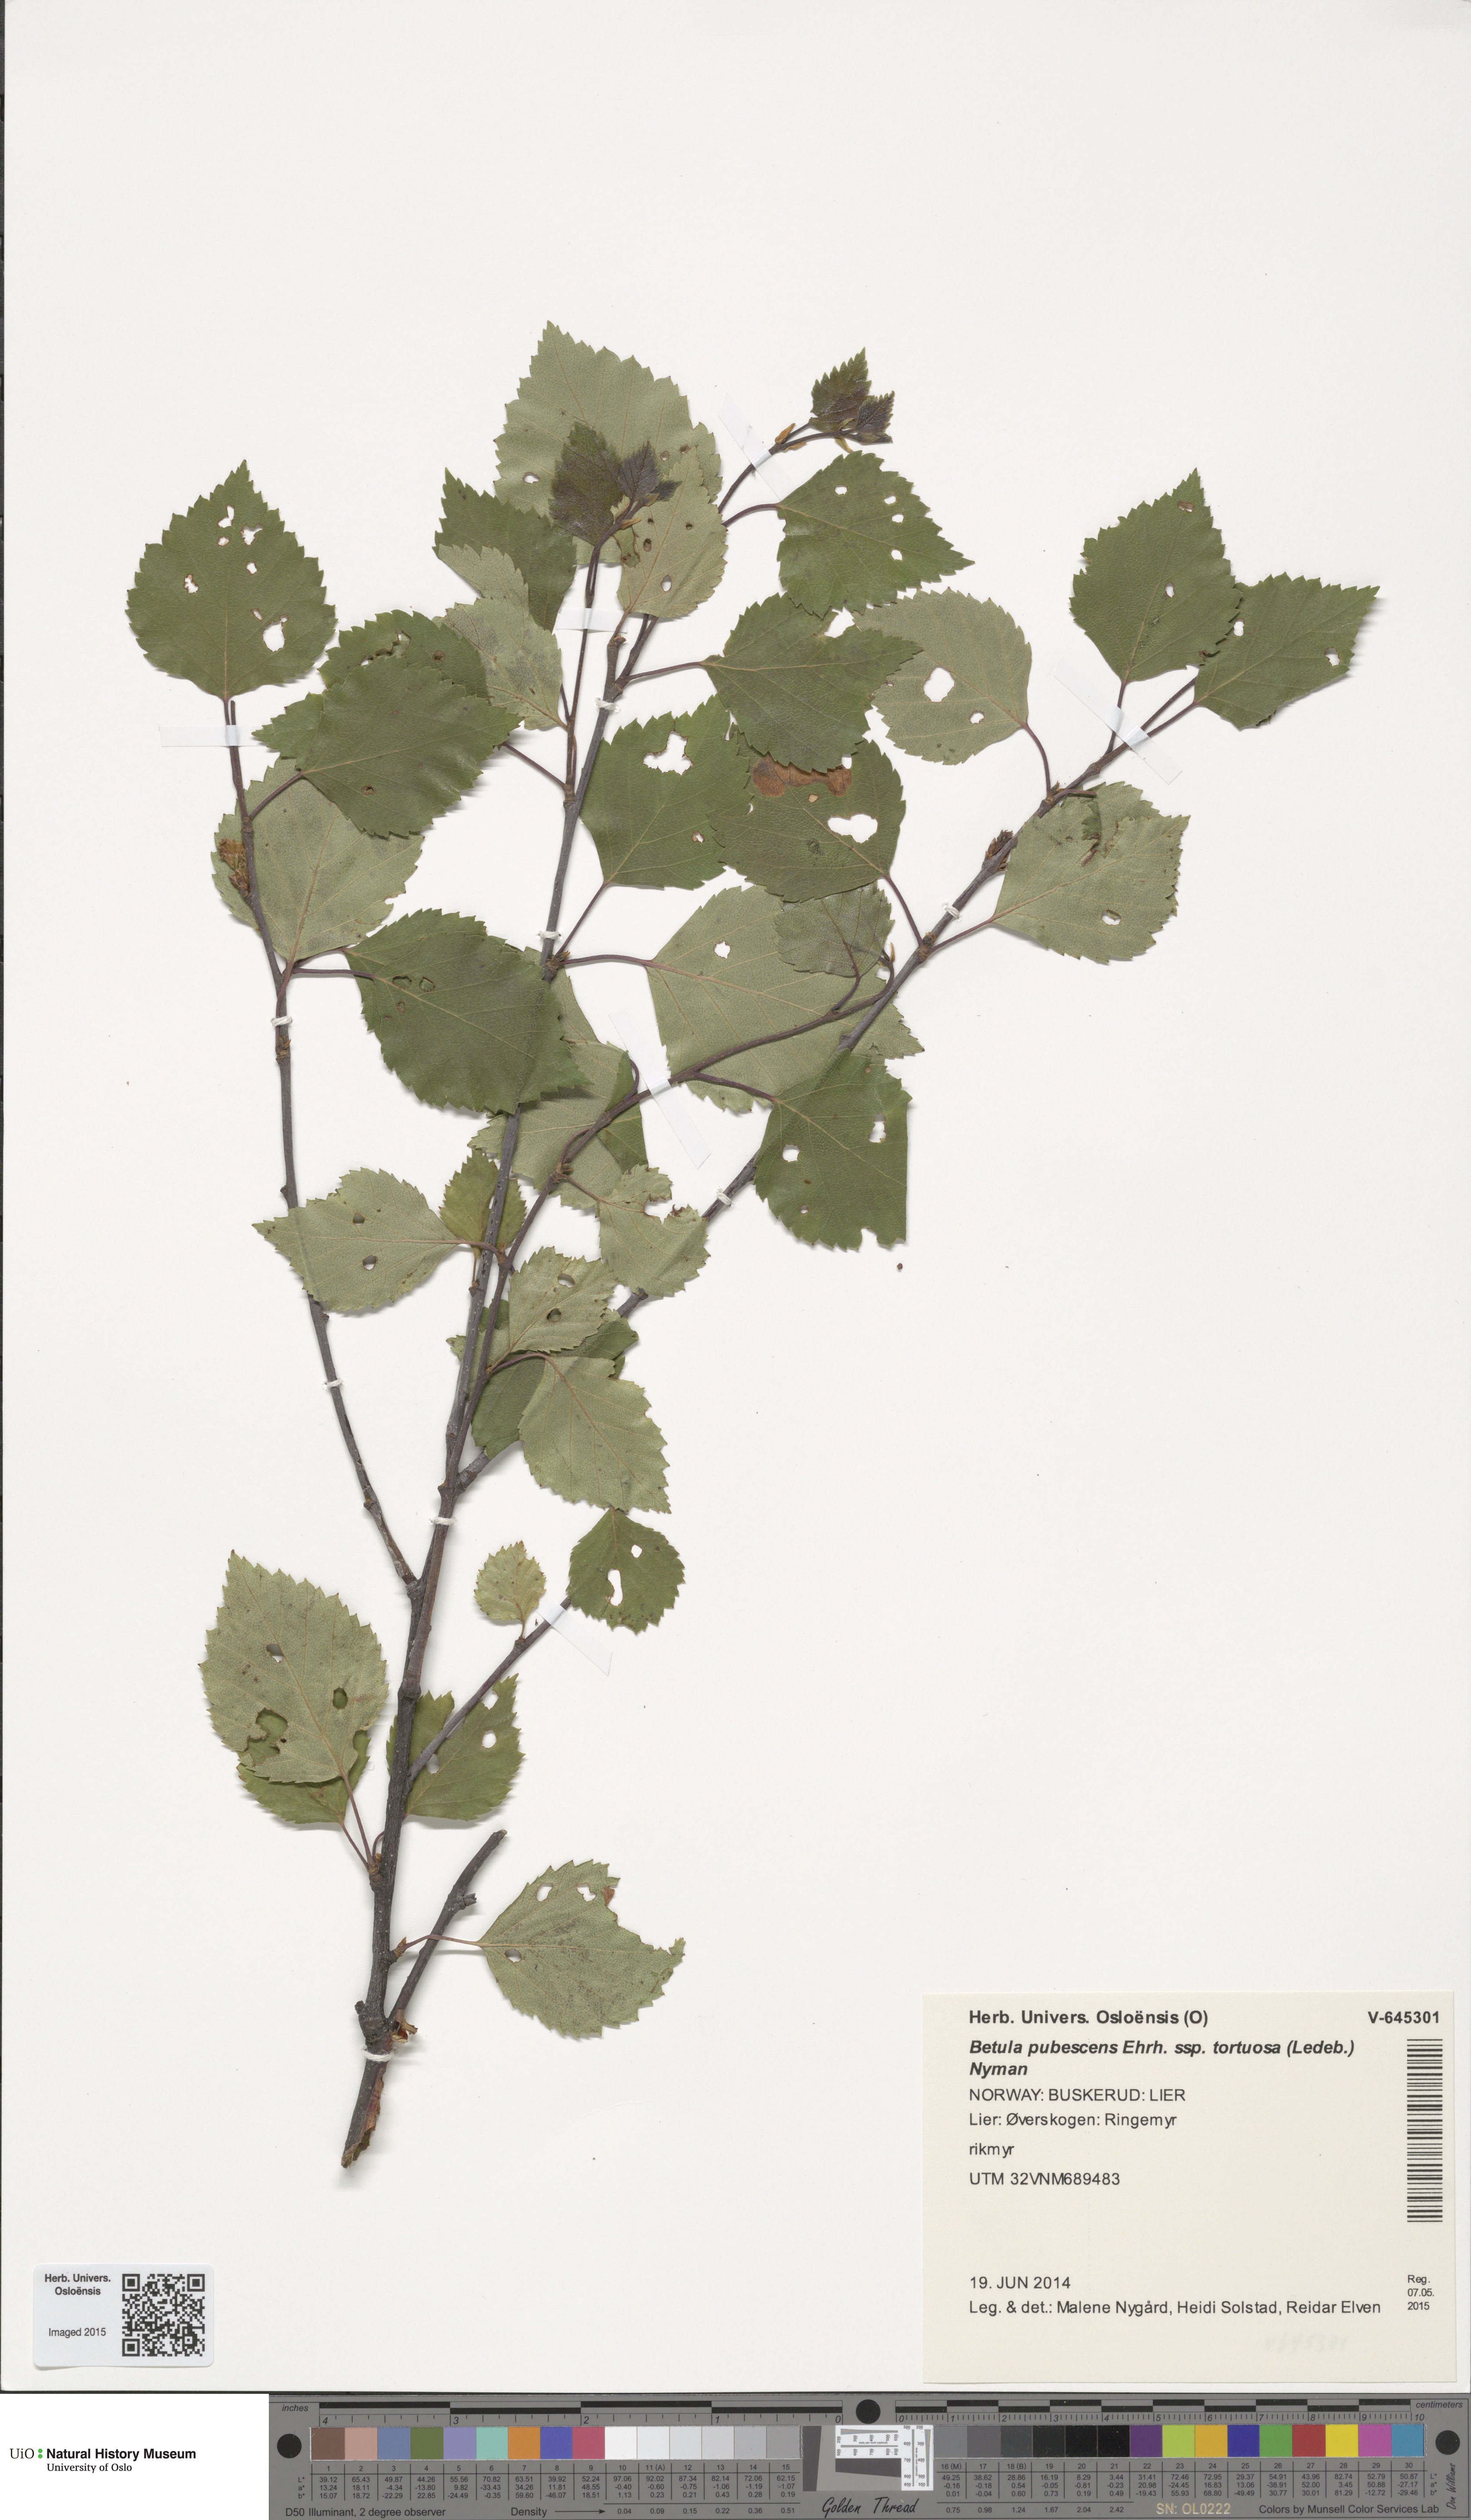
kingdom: Plantae
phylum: Tracheophyta
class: Magnoliopsida
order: Fagales
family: Betulaceae
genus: Betula
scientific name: Betula pubescens
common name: Downy birch
